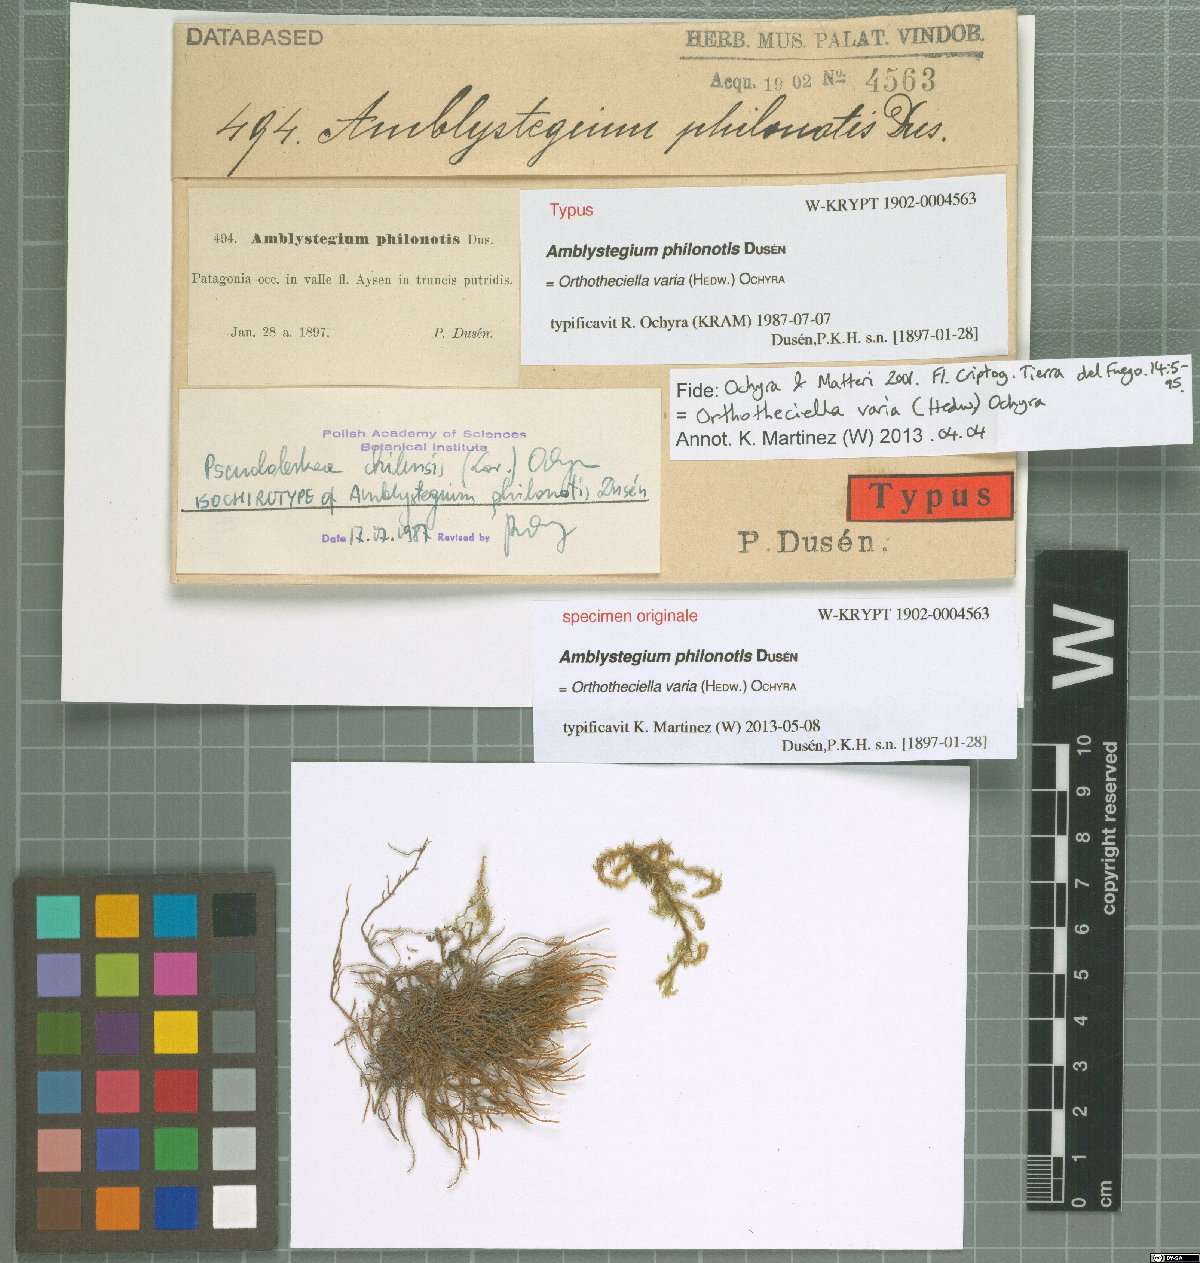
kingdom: Plantae
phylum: Bryophyta
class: Bryopsida
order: Hypnales
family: Amblystegiaceae
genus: Hygroamblystegium
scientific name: Hygroamblystegium varium
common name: Willow feather-moss
